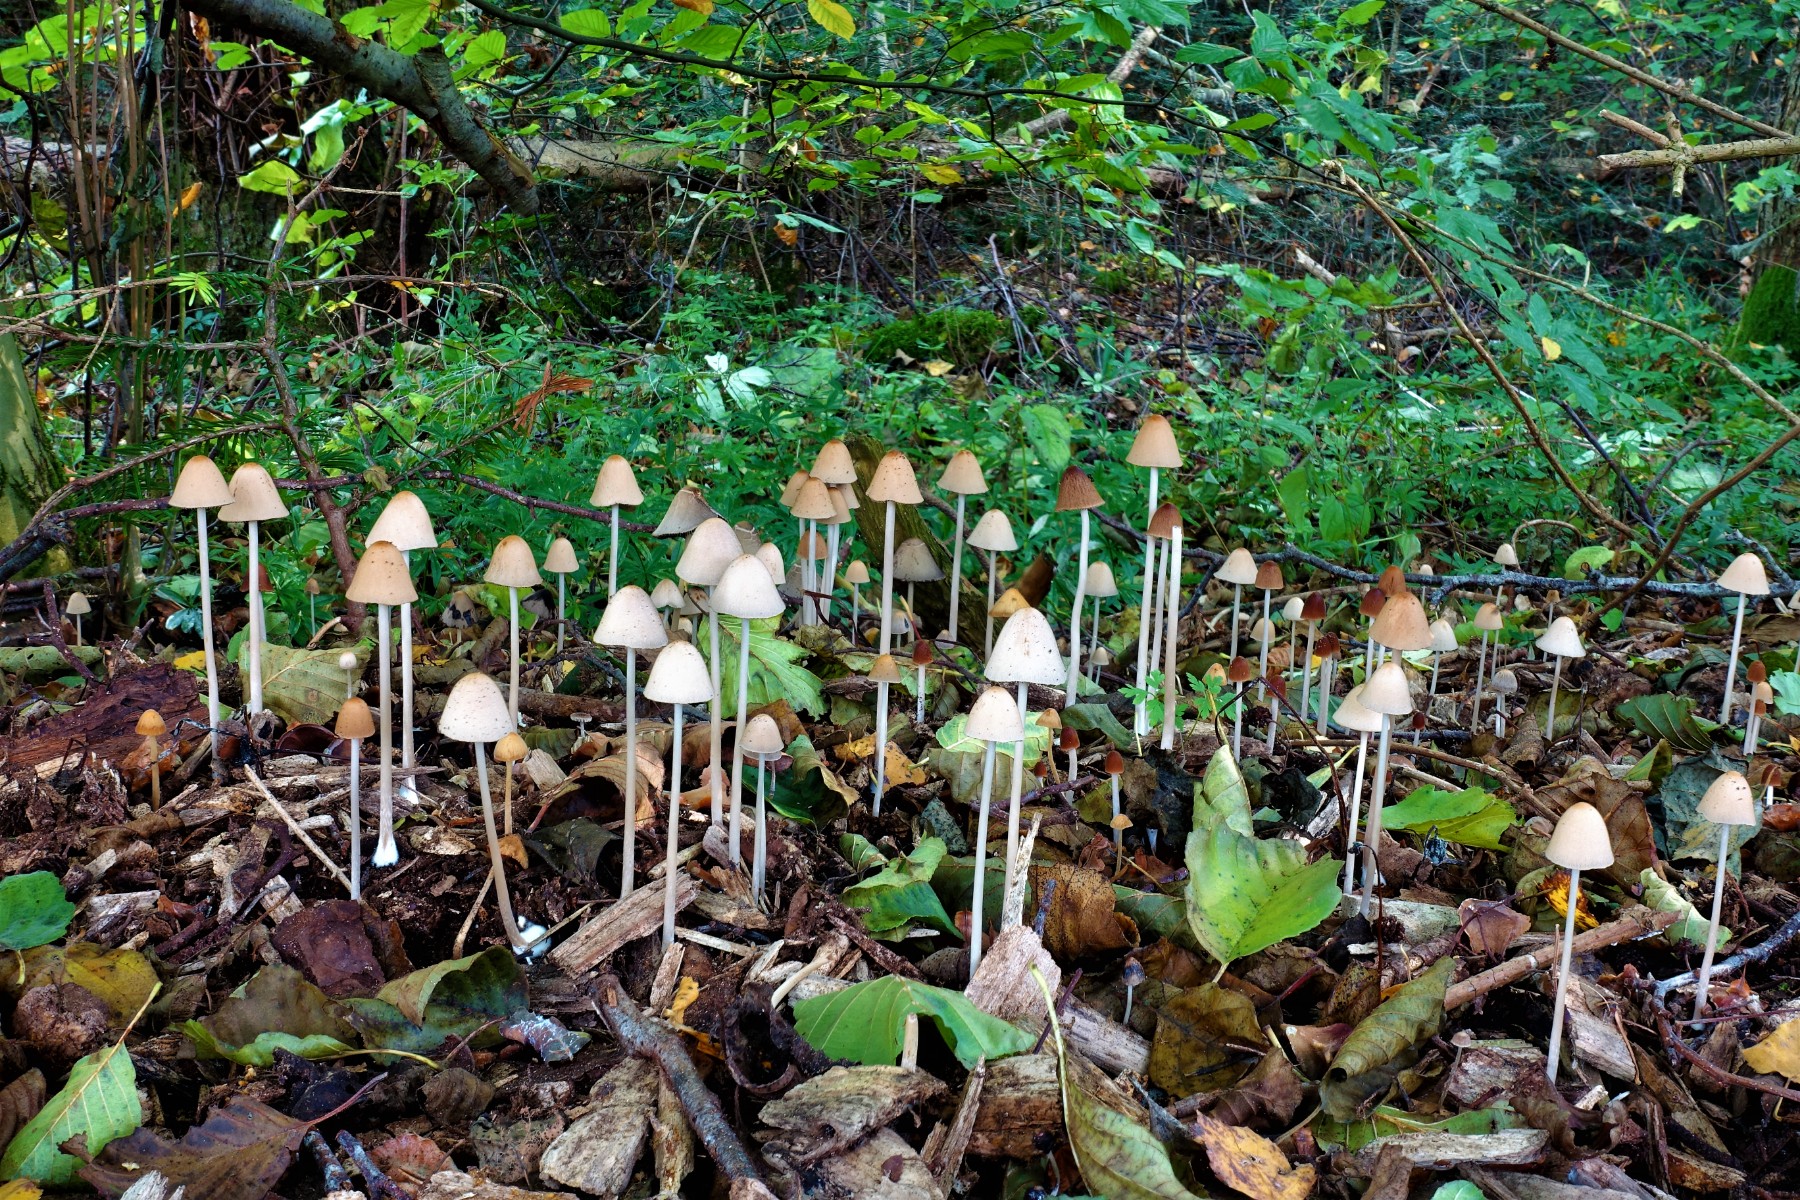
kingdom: Fungi
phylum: Basidiomycota
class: Agaricomycetes
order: Agaricales
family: Psathyrellaceae
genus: Parasola
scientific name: Parasola conopilea
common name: kegle-hjulhat
